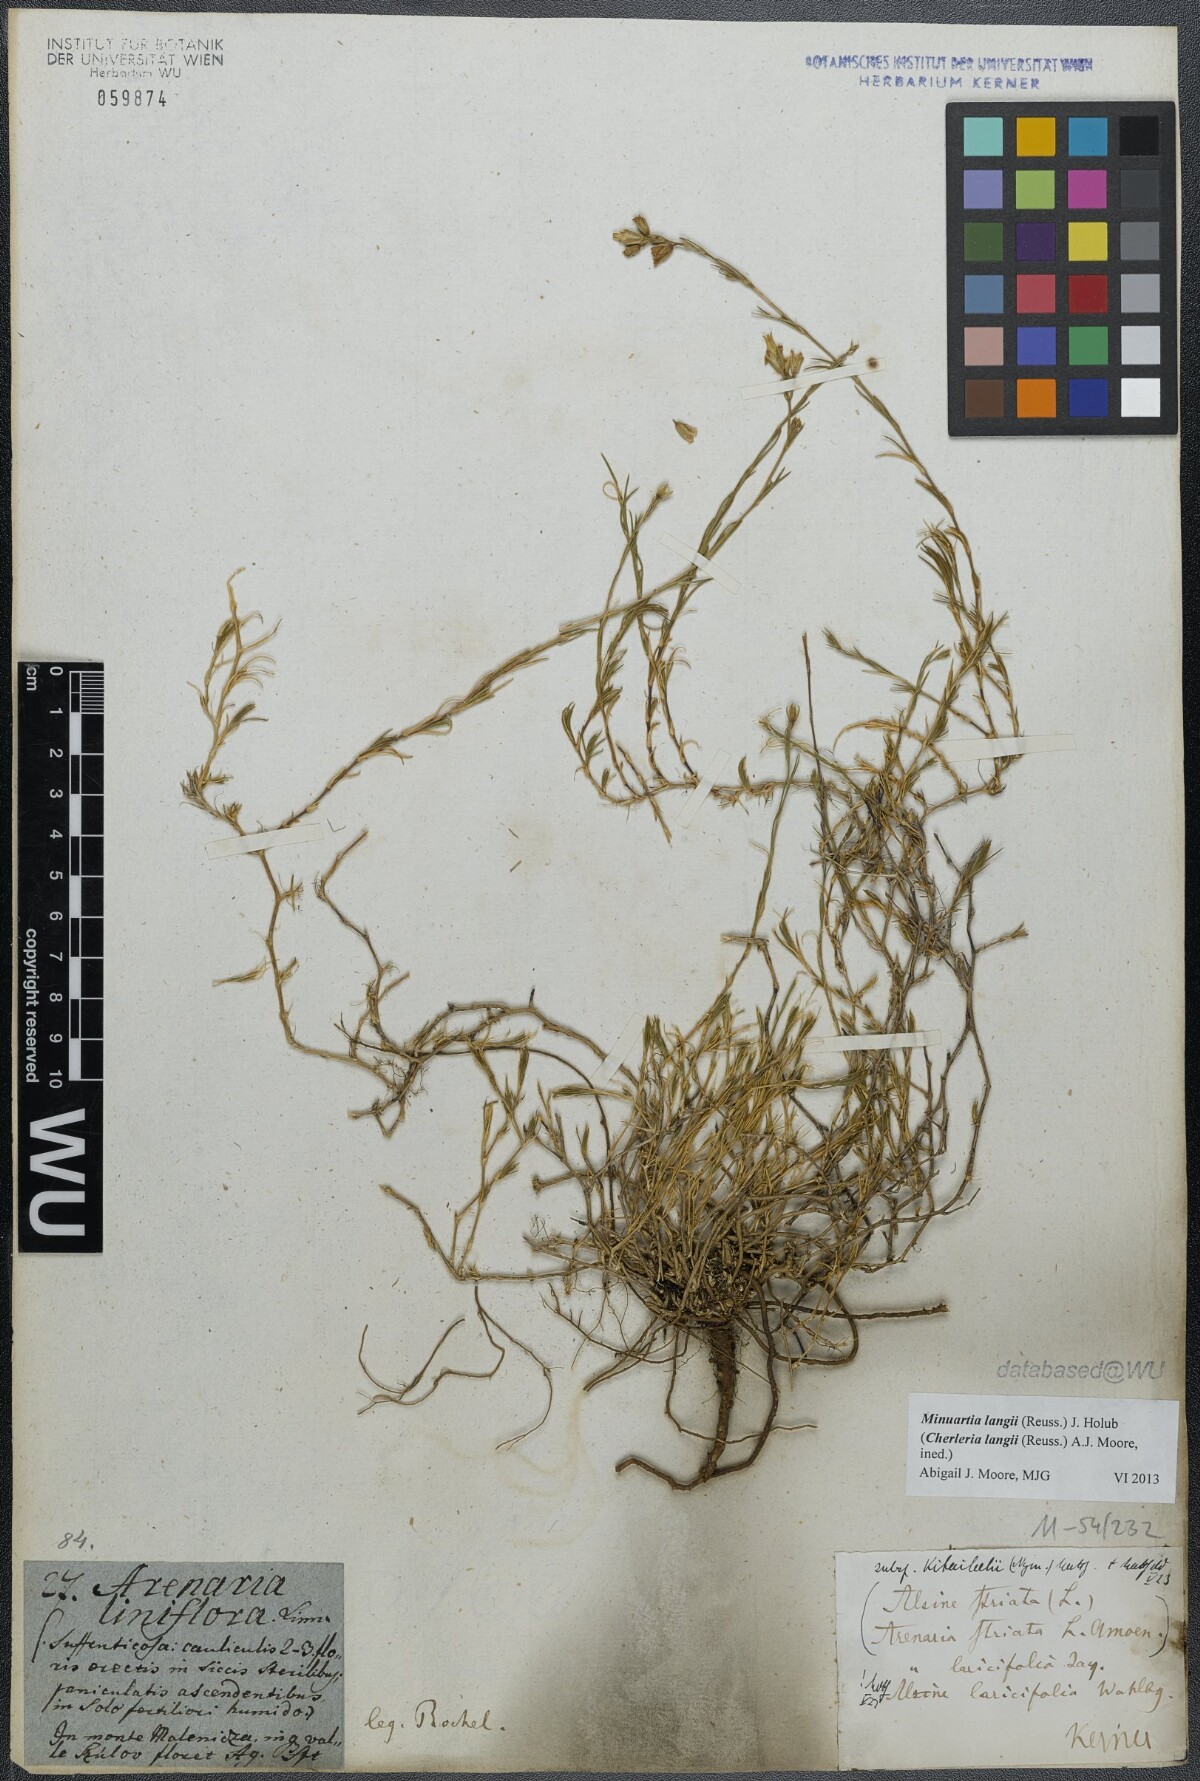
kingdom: Plantae
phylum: Tracheophyta
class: Magnoliopsida
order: Caryophyllales
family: Caryophyllaceae
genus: Cherleria
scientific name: Cherleria langii
